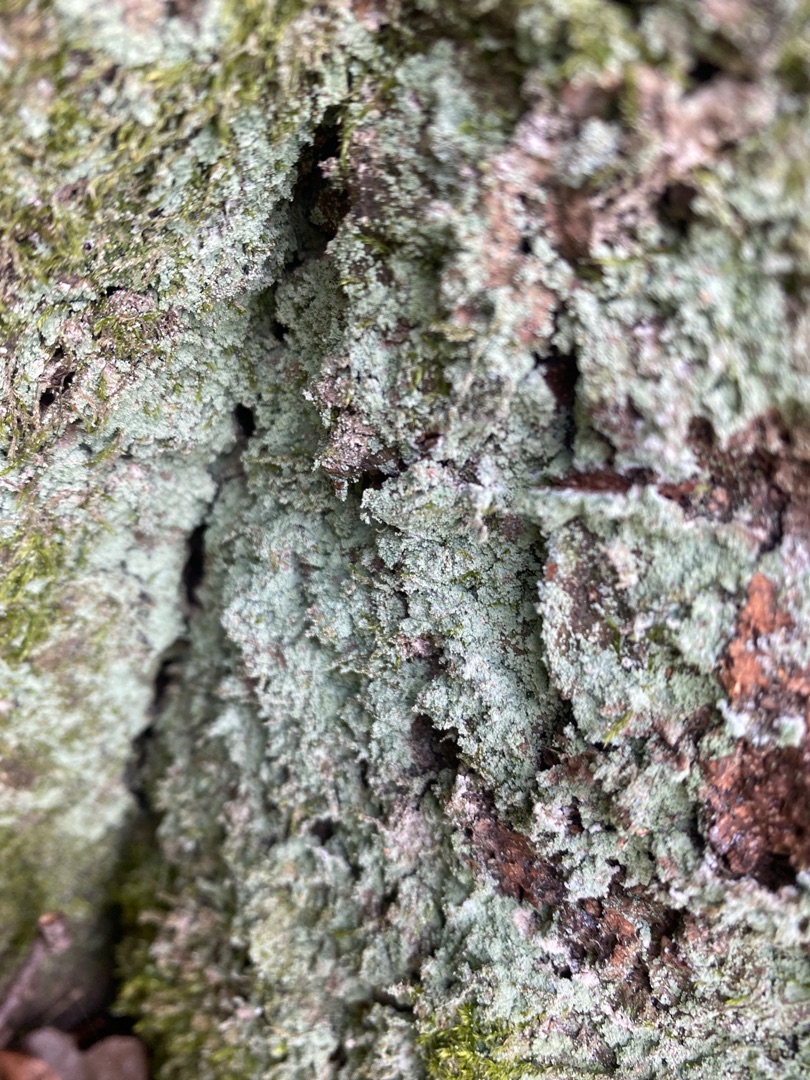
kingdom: Fungi
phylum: Ascomycota
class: Lecanoromycetes
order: Lecanorales
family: Stereocaulaceae
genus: Lepraria
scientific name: Lepraria incana
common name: Almindelig støvlav
